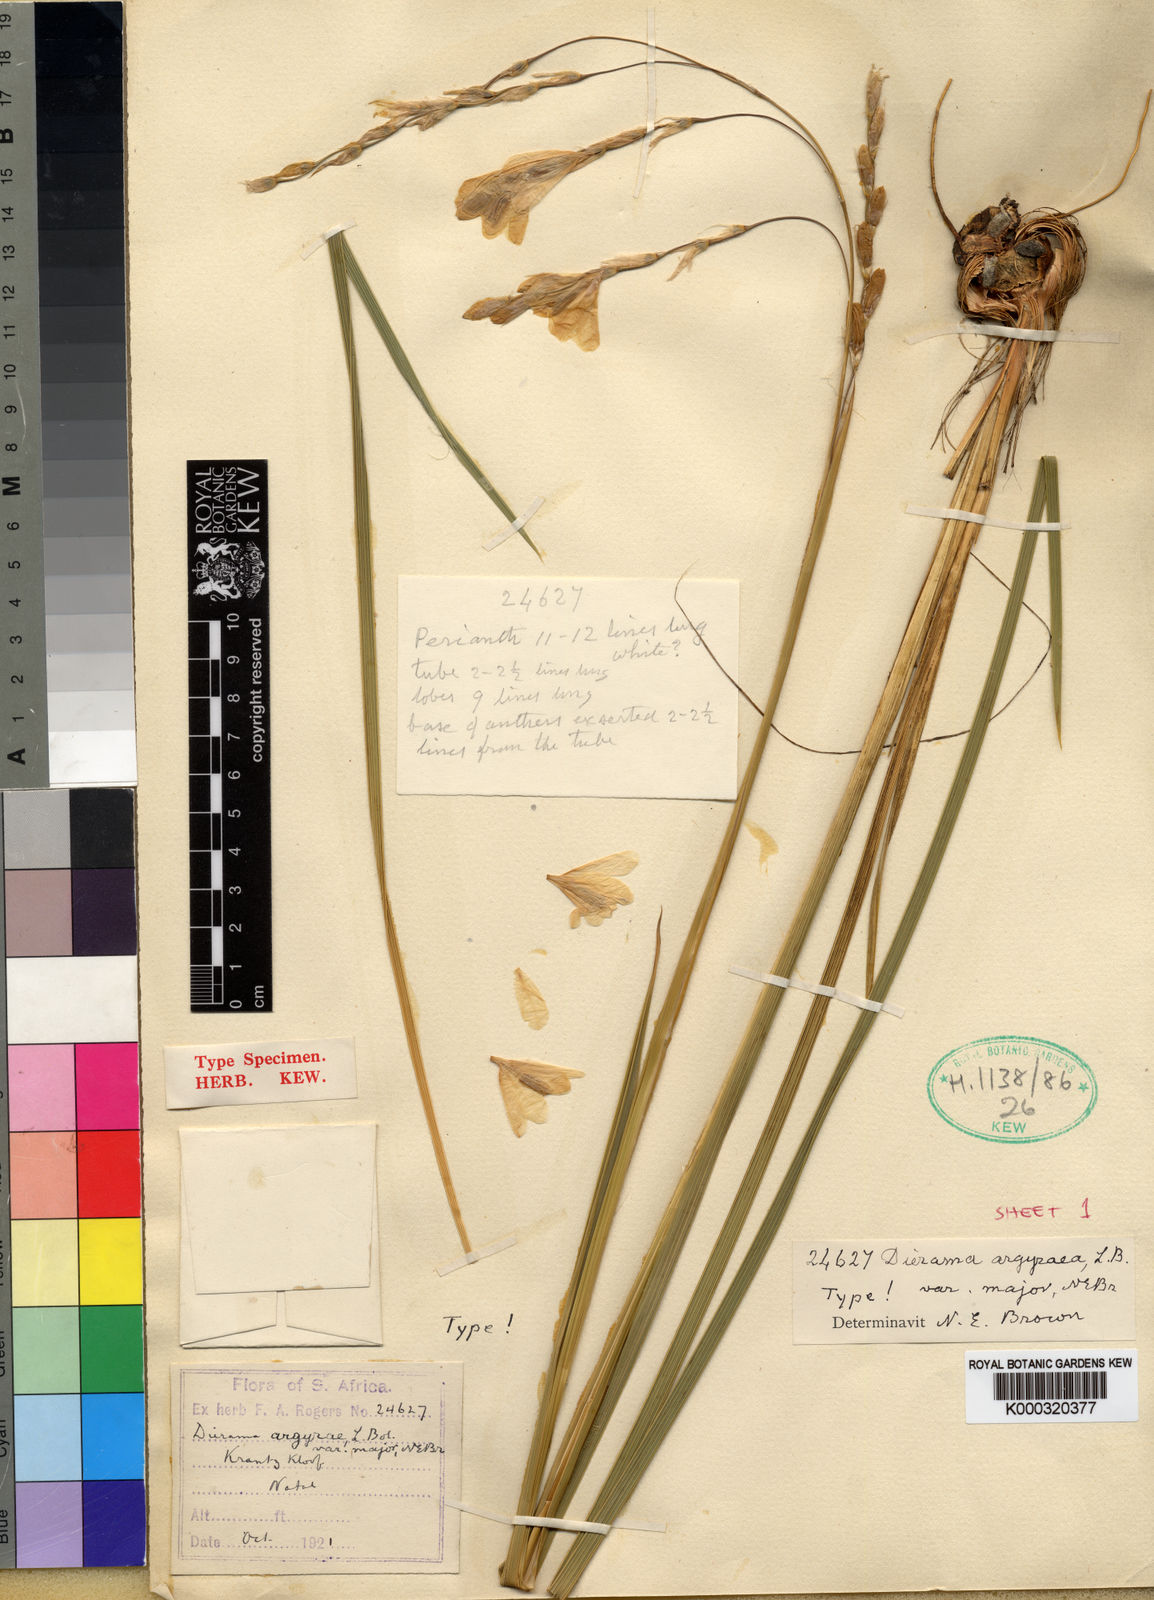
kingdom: Plantae
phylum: Tracheophyta
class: Liliopsida
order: Asparagales
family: Iridaceae
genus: Dierama
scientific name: Dierama argyreum
